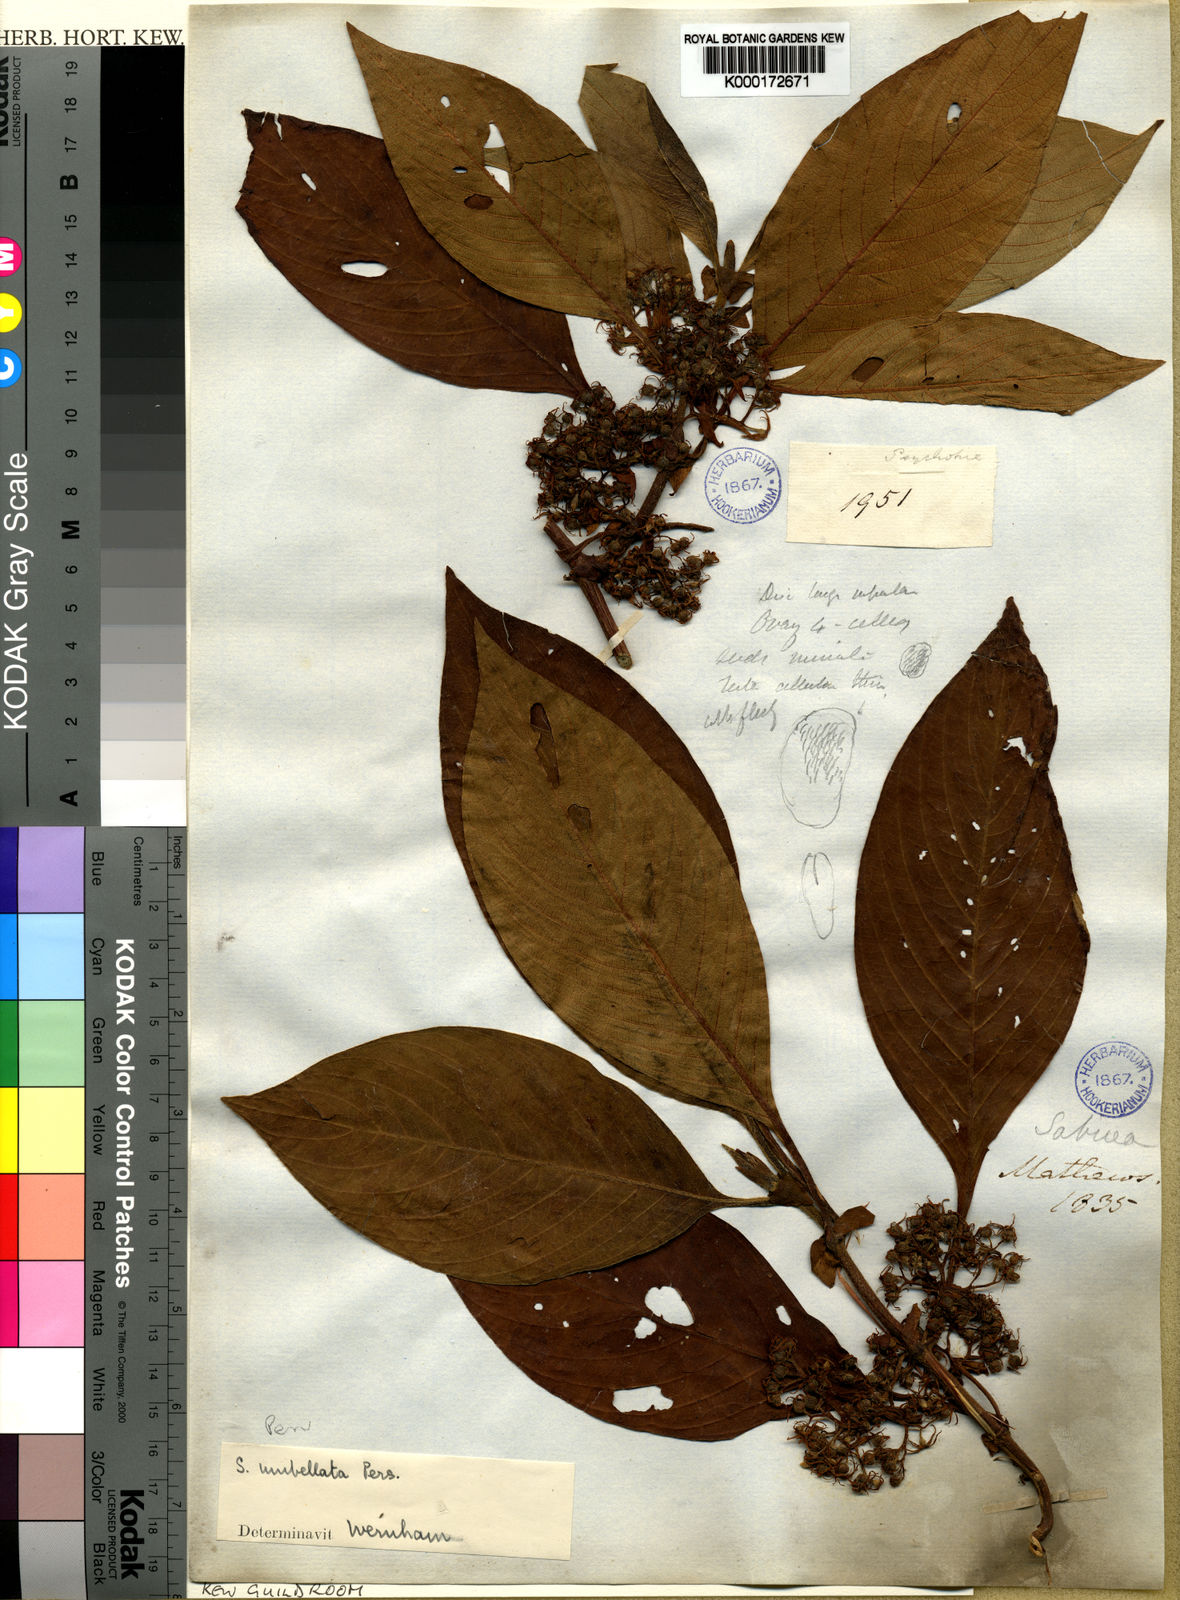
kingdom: Plantae
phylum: Tracheophyta
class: Magnoliopsida
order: Gentianales
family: Rubiaceae
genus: Sabicea
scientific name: Sabicea umbellata
